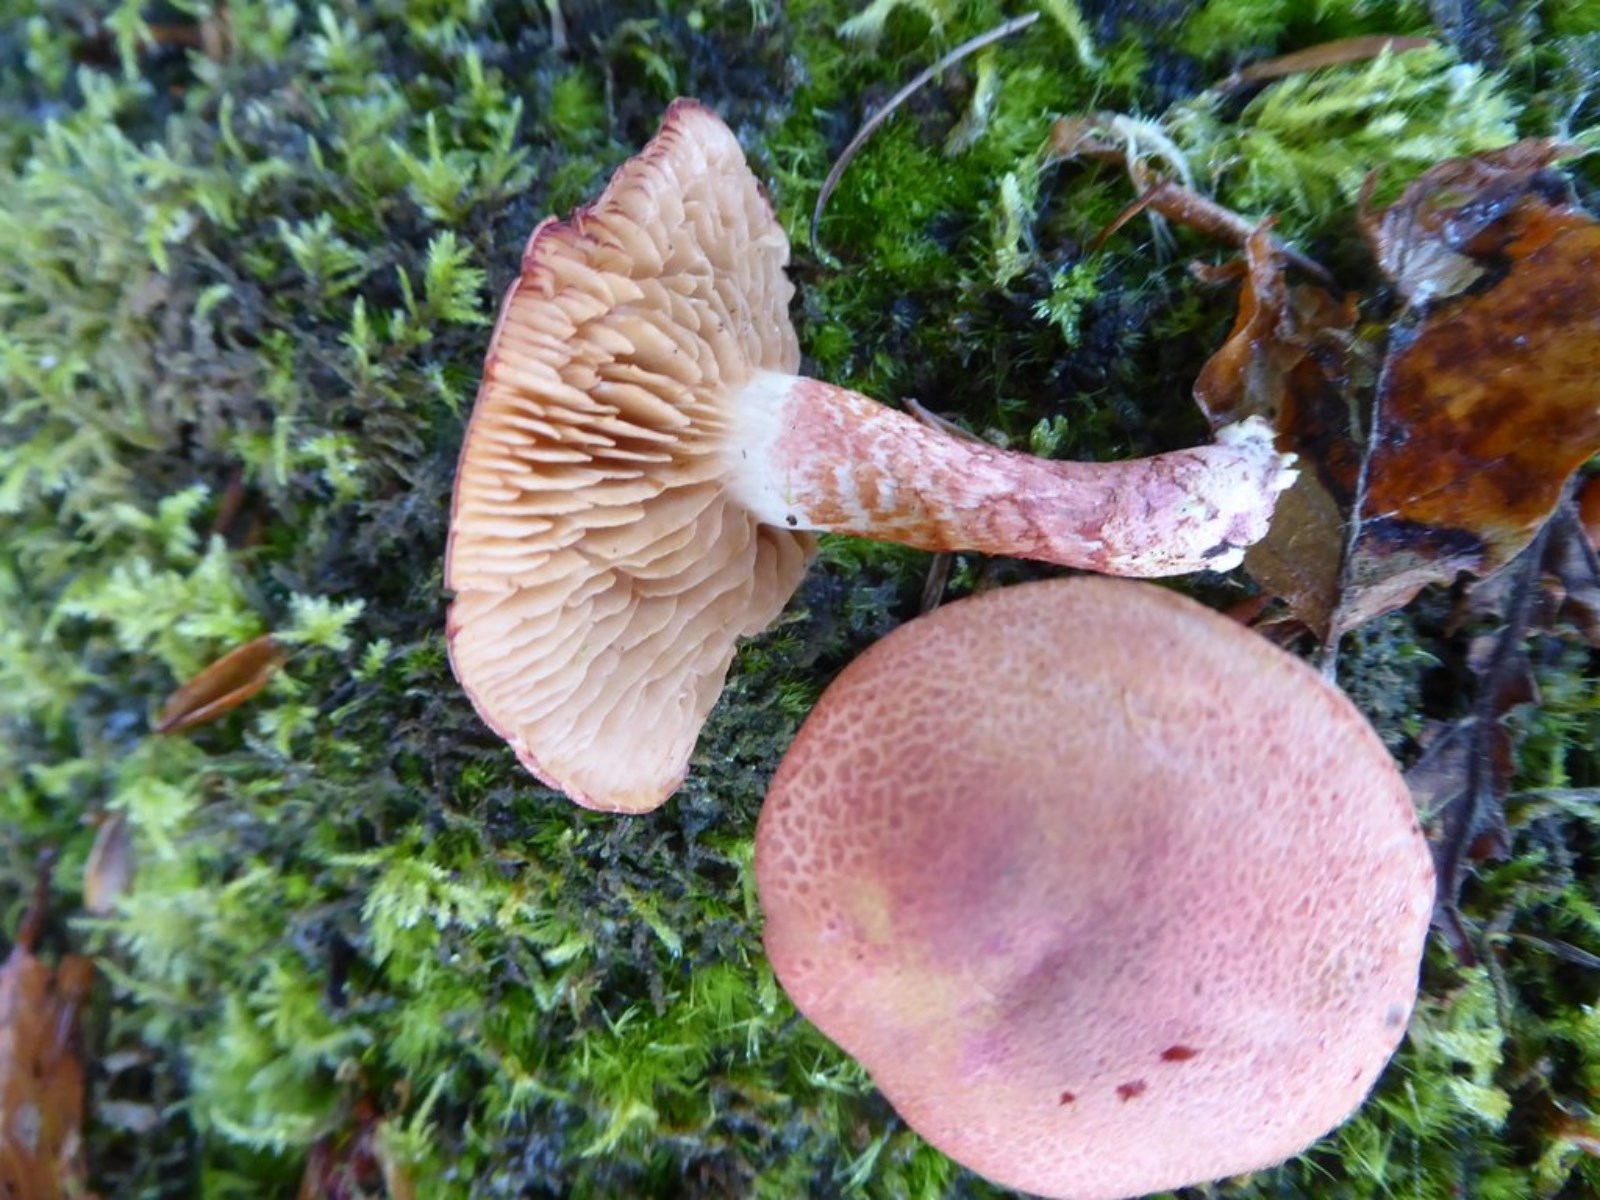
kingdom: Fungi
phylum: Basidiomycota
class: Agaricomycetes
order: Agaricales
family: Cortinariaceae
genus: Cortinarius
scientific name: Cortinarius bolaris
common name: cinnoberskællet slørhat
